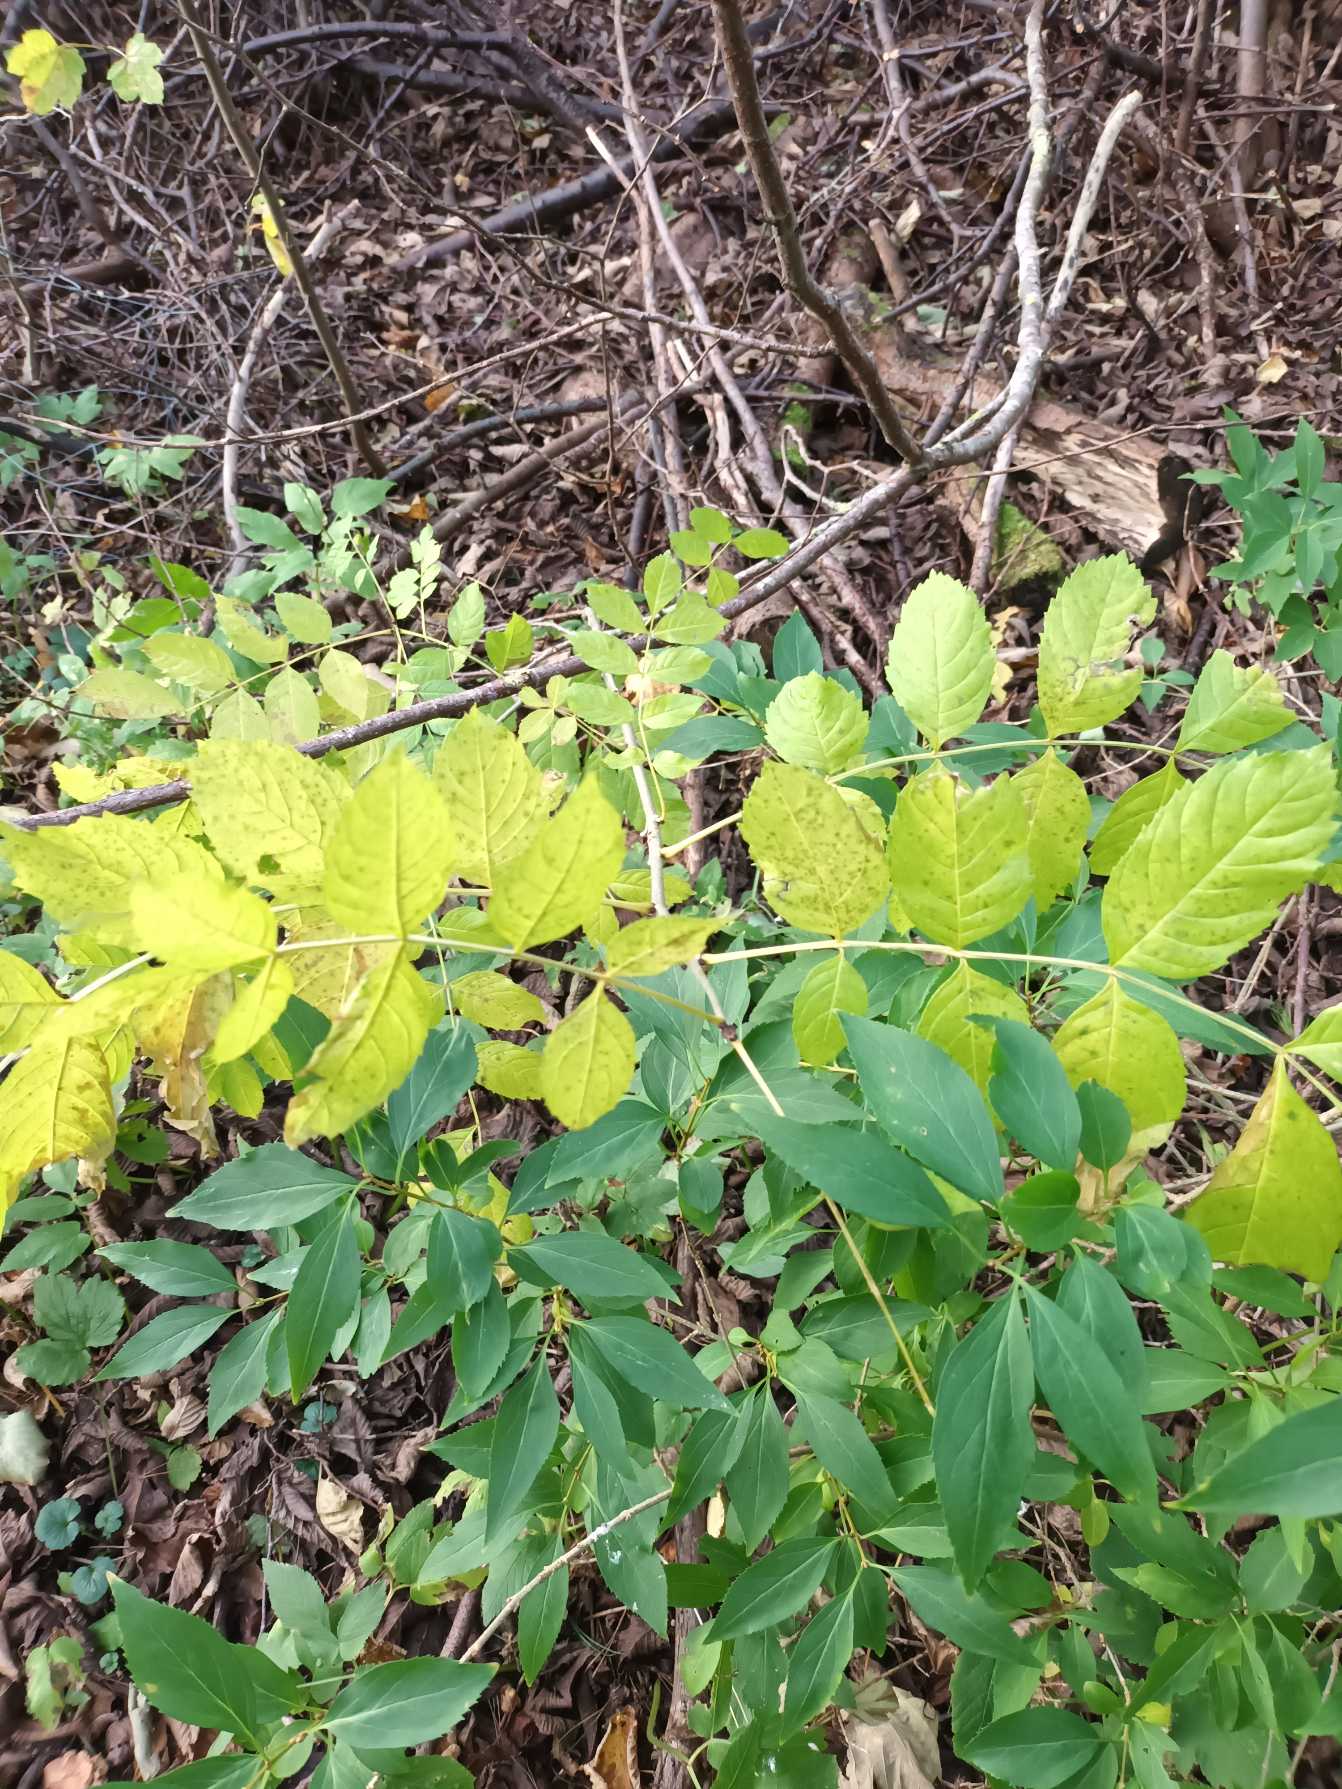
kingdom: Plantae
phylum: Tracheophyta
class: Magnoliopsida
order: Lamiales
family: Oleaceae
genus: Fraxinus
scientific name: Fraxinus excelsior
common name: Ask
